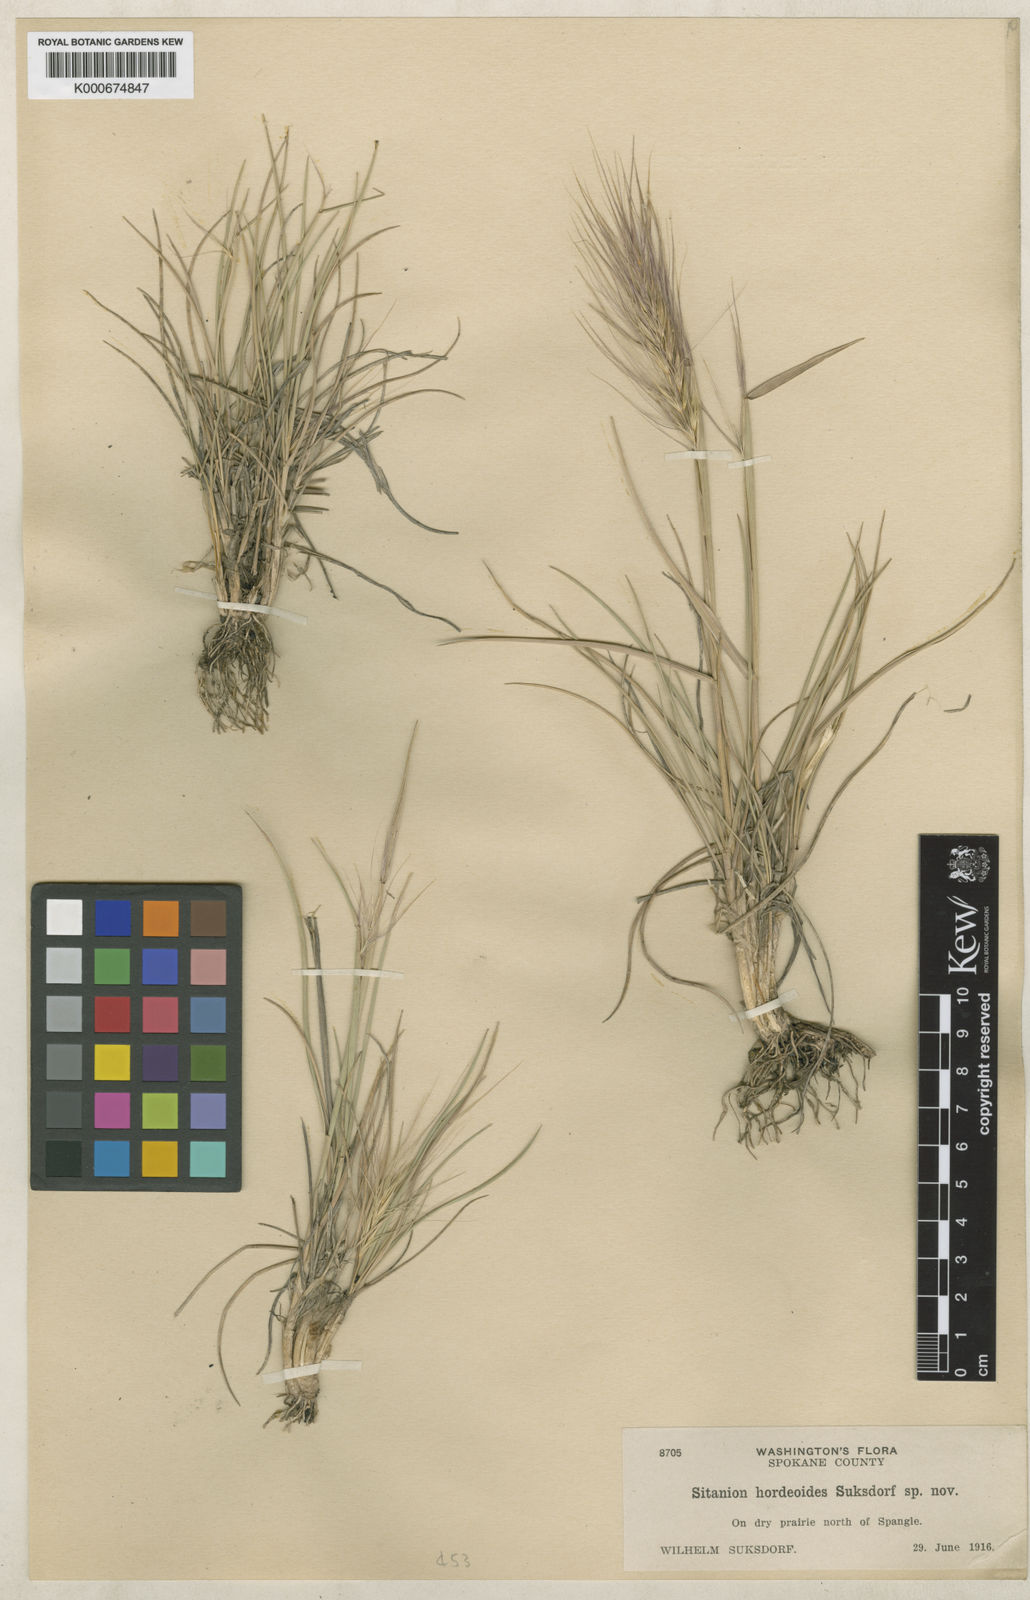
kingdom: Plantae
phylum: Tracheophyta
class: Liliopsida
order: Poales
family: Poaceae
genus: Elymus
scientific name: Elymus elymoides
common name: Bottlebrush squirreltail
